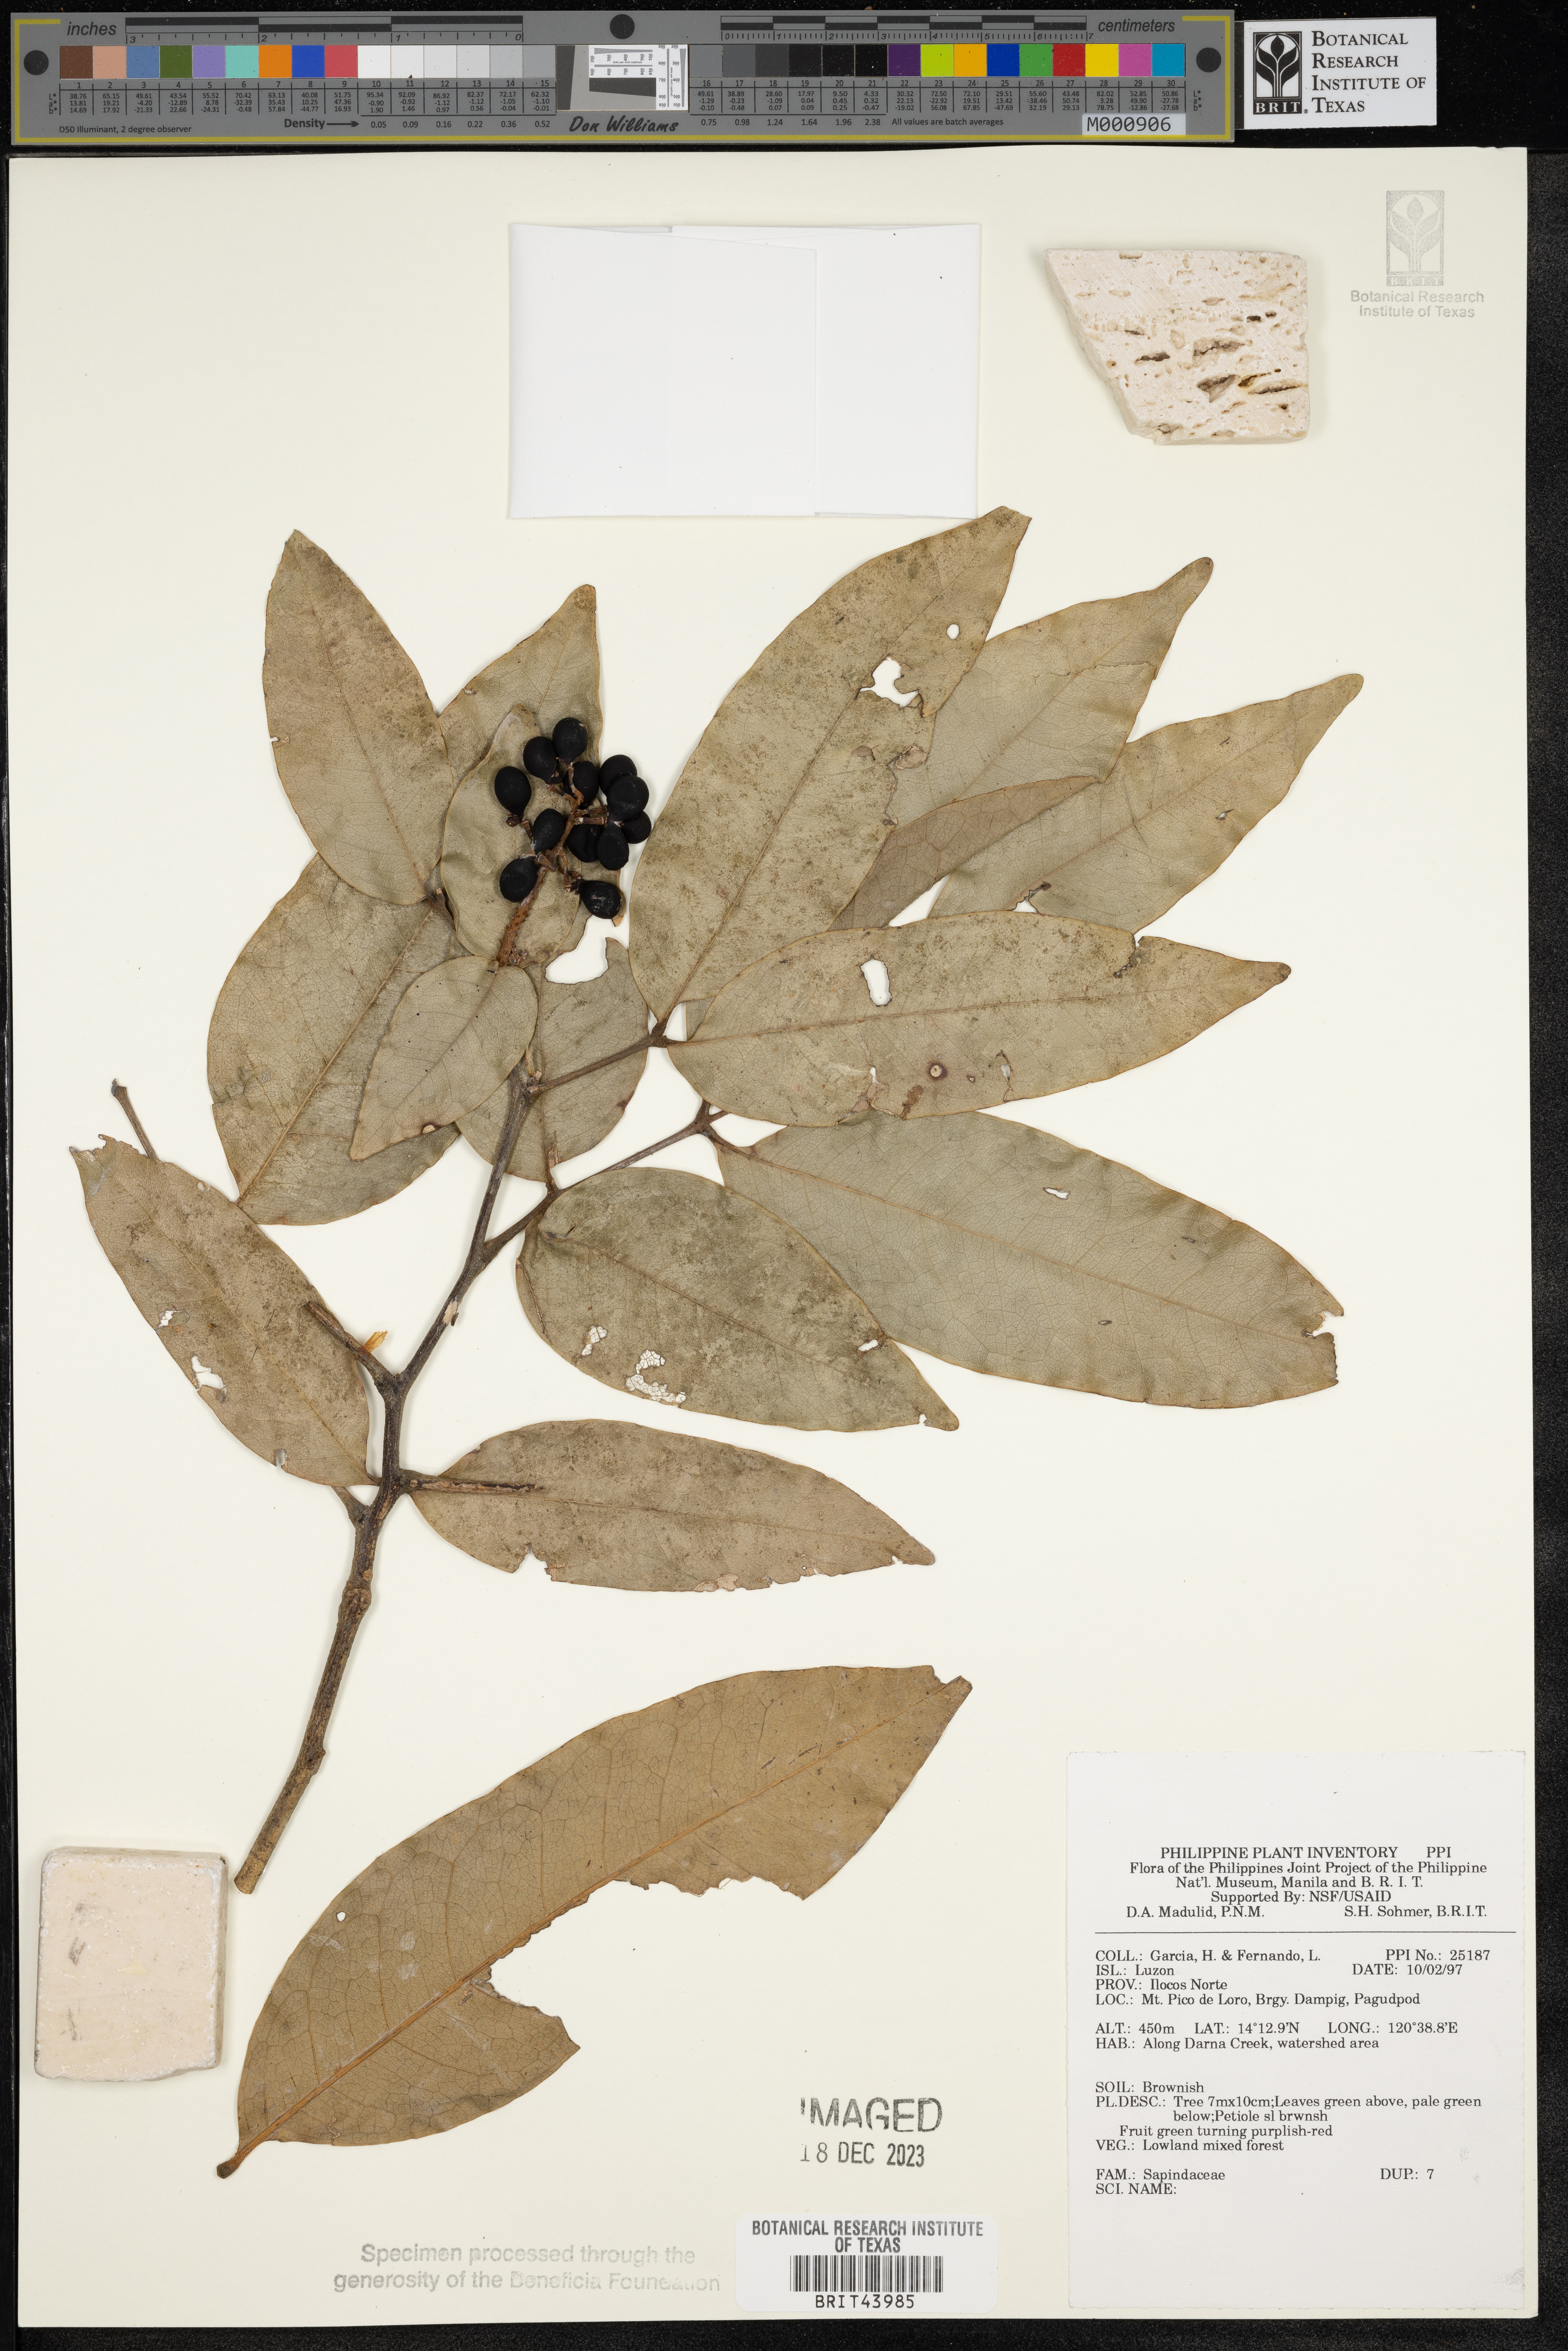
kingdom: Plantae
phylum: Tracheophyta
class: Magnoliopsida
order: Sapindales
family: Sapindaceae
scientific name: Sapindaceae
